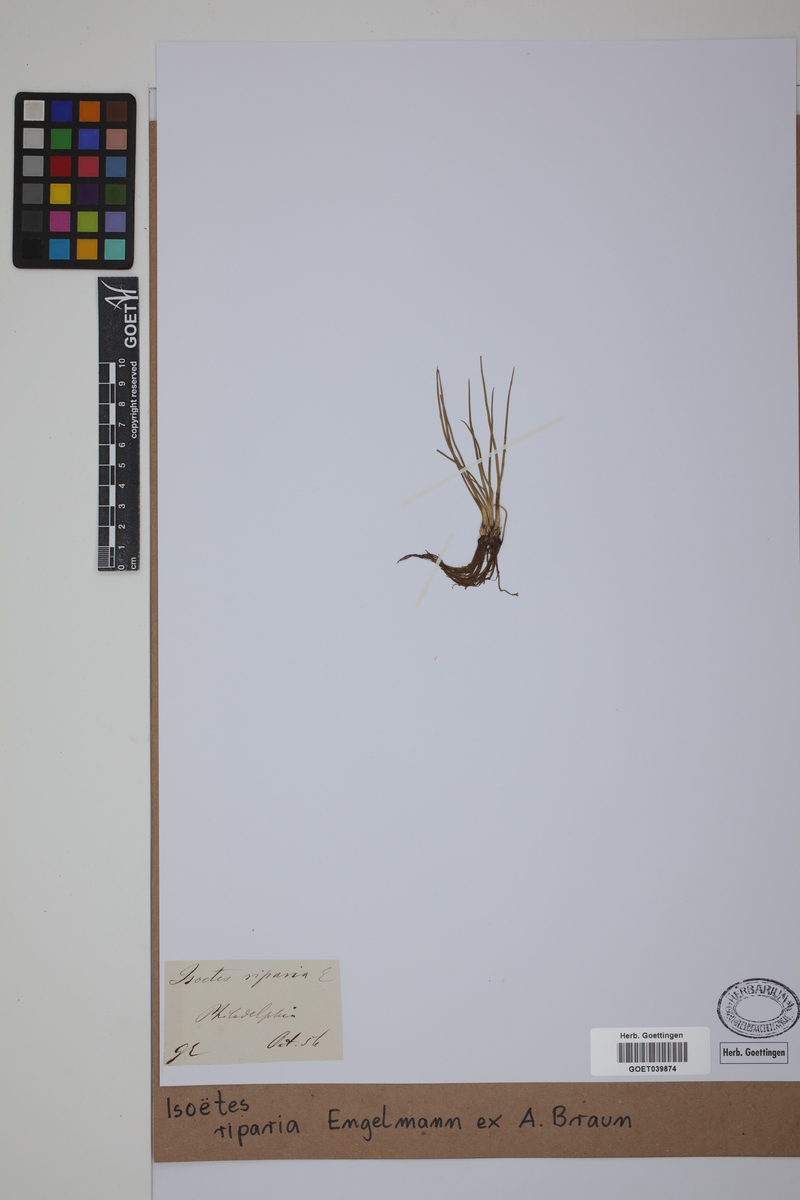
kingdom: Plantae
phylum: Tracheophyta
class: Lycopodiopsida
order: Isoetales
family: Isoetaceae
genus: Isoetes
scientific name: Isoetes riparia
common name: Riverbank quillwort
